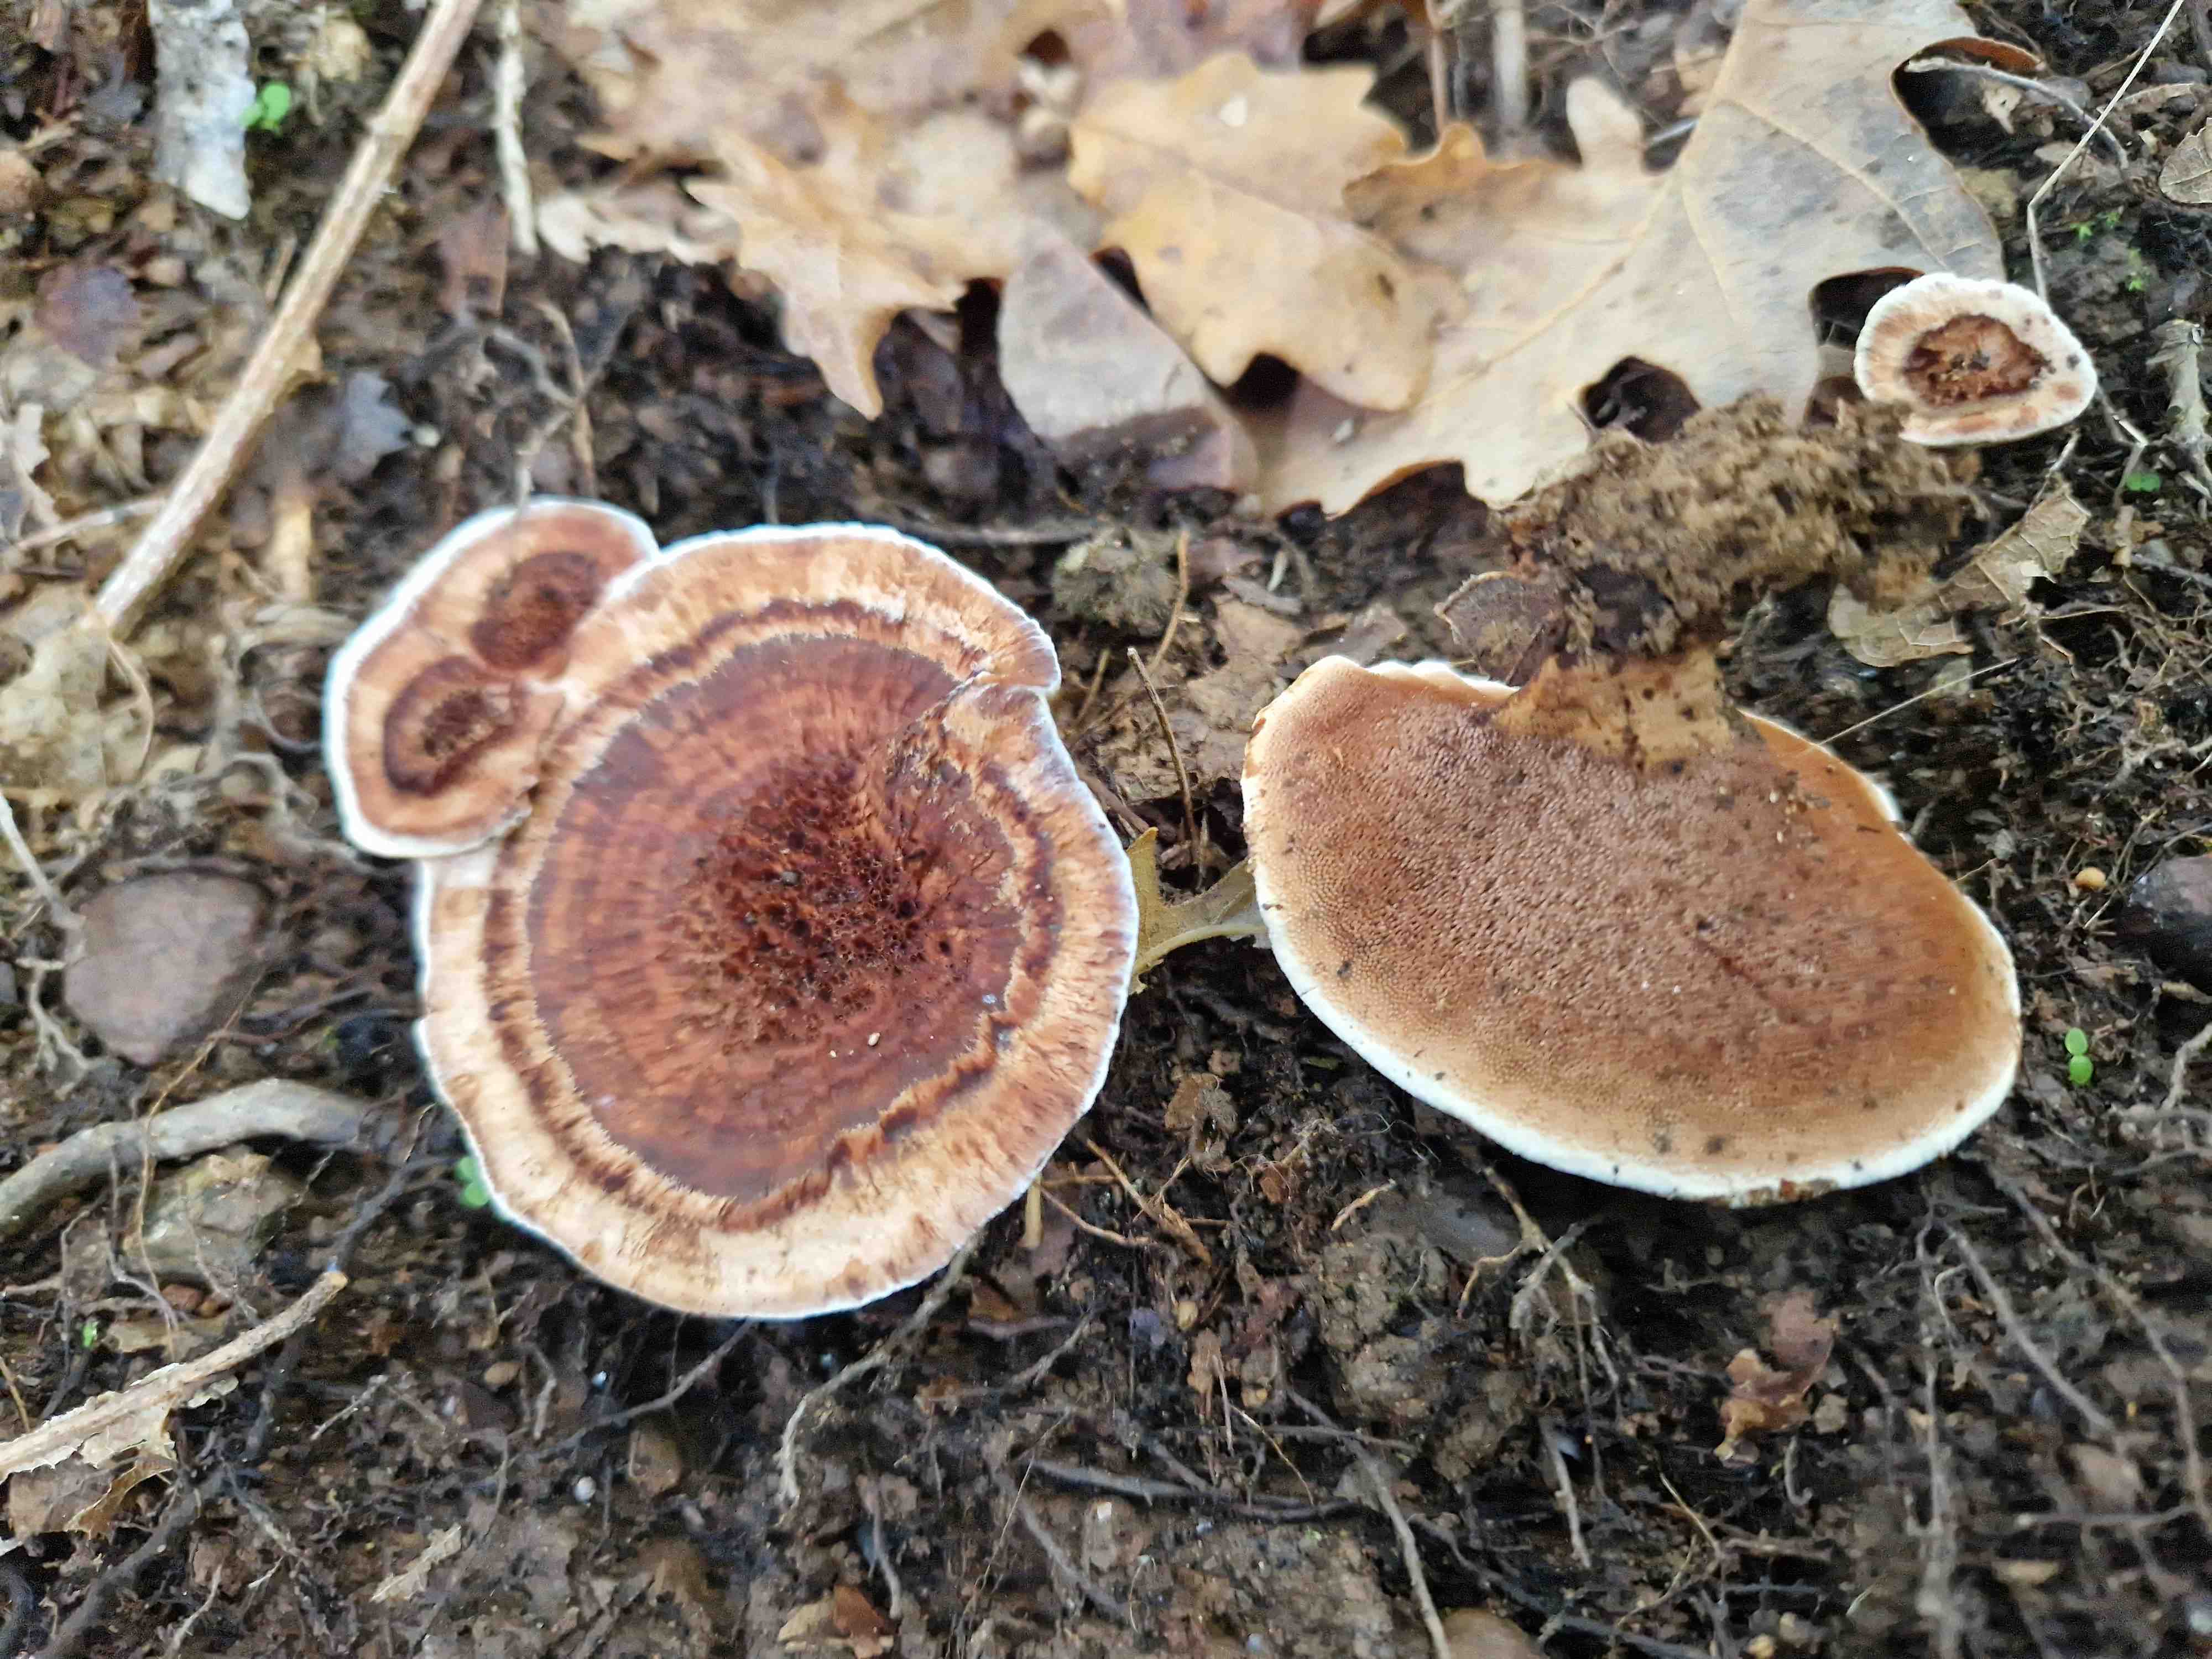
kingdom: Fungi
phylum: Basidiomycota
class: Agaricomycetes
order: Thelephorales
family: Bankeraceae
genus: Hydnellum
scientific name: Hydnellum
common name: korkpigsvamp
